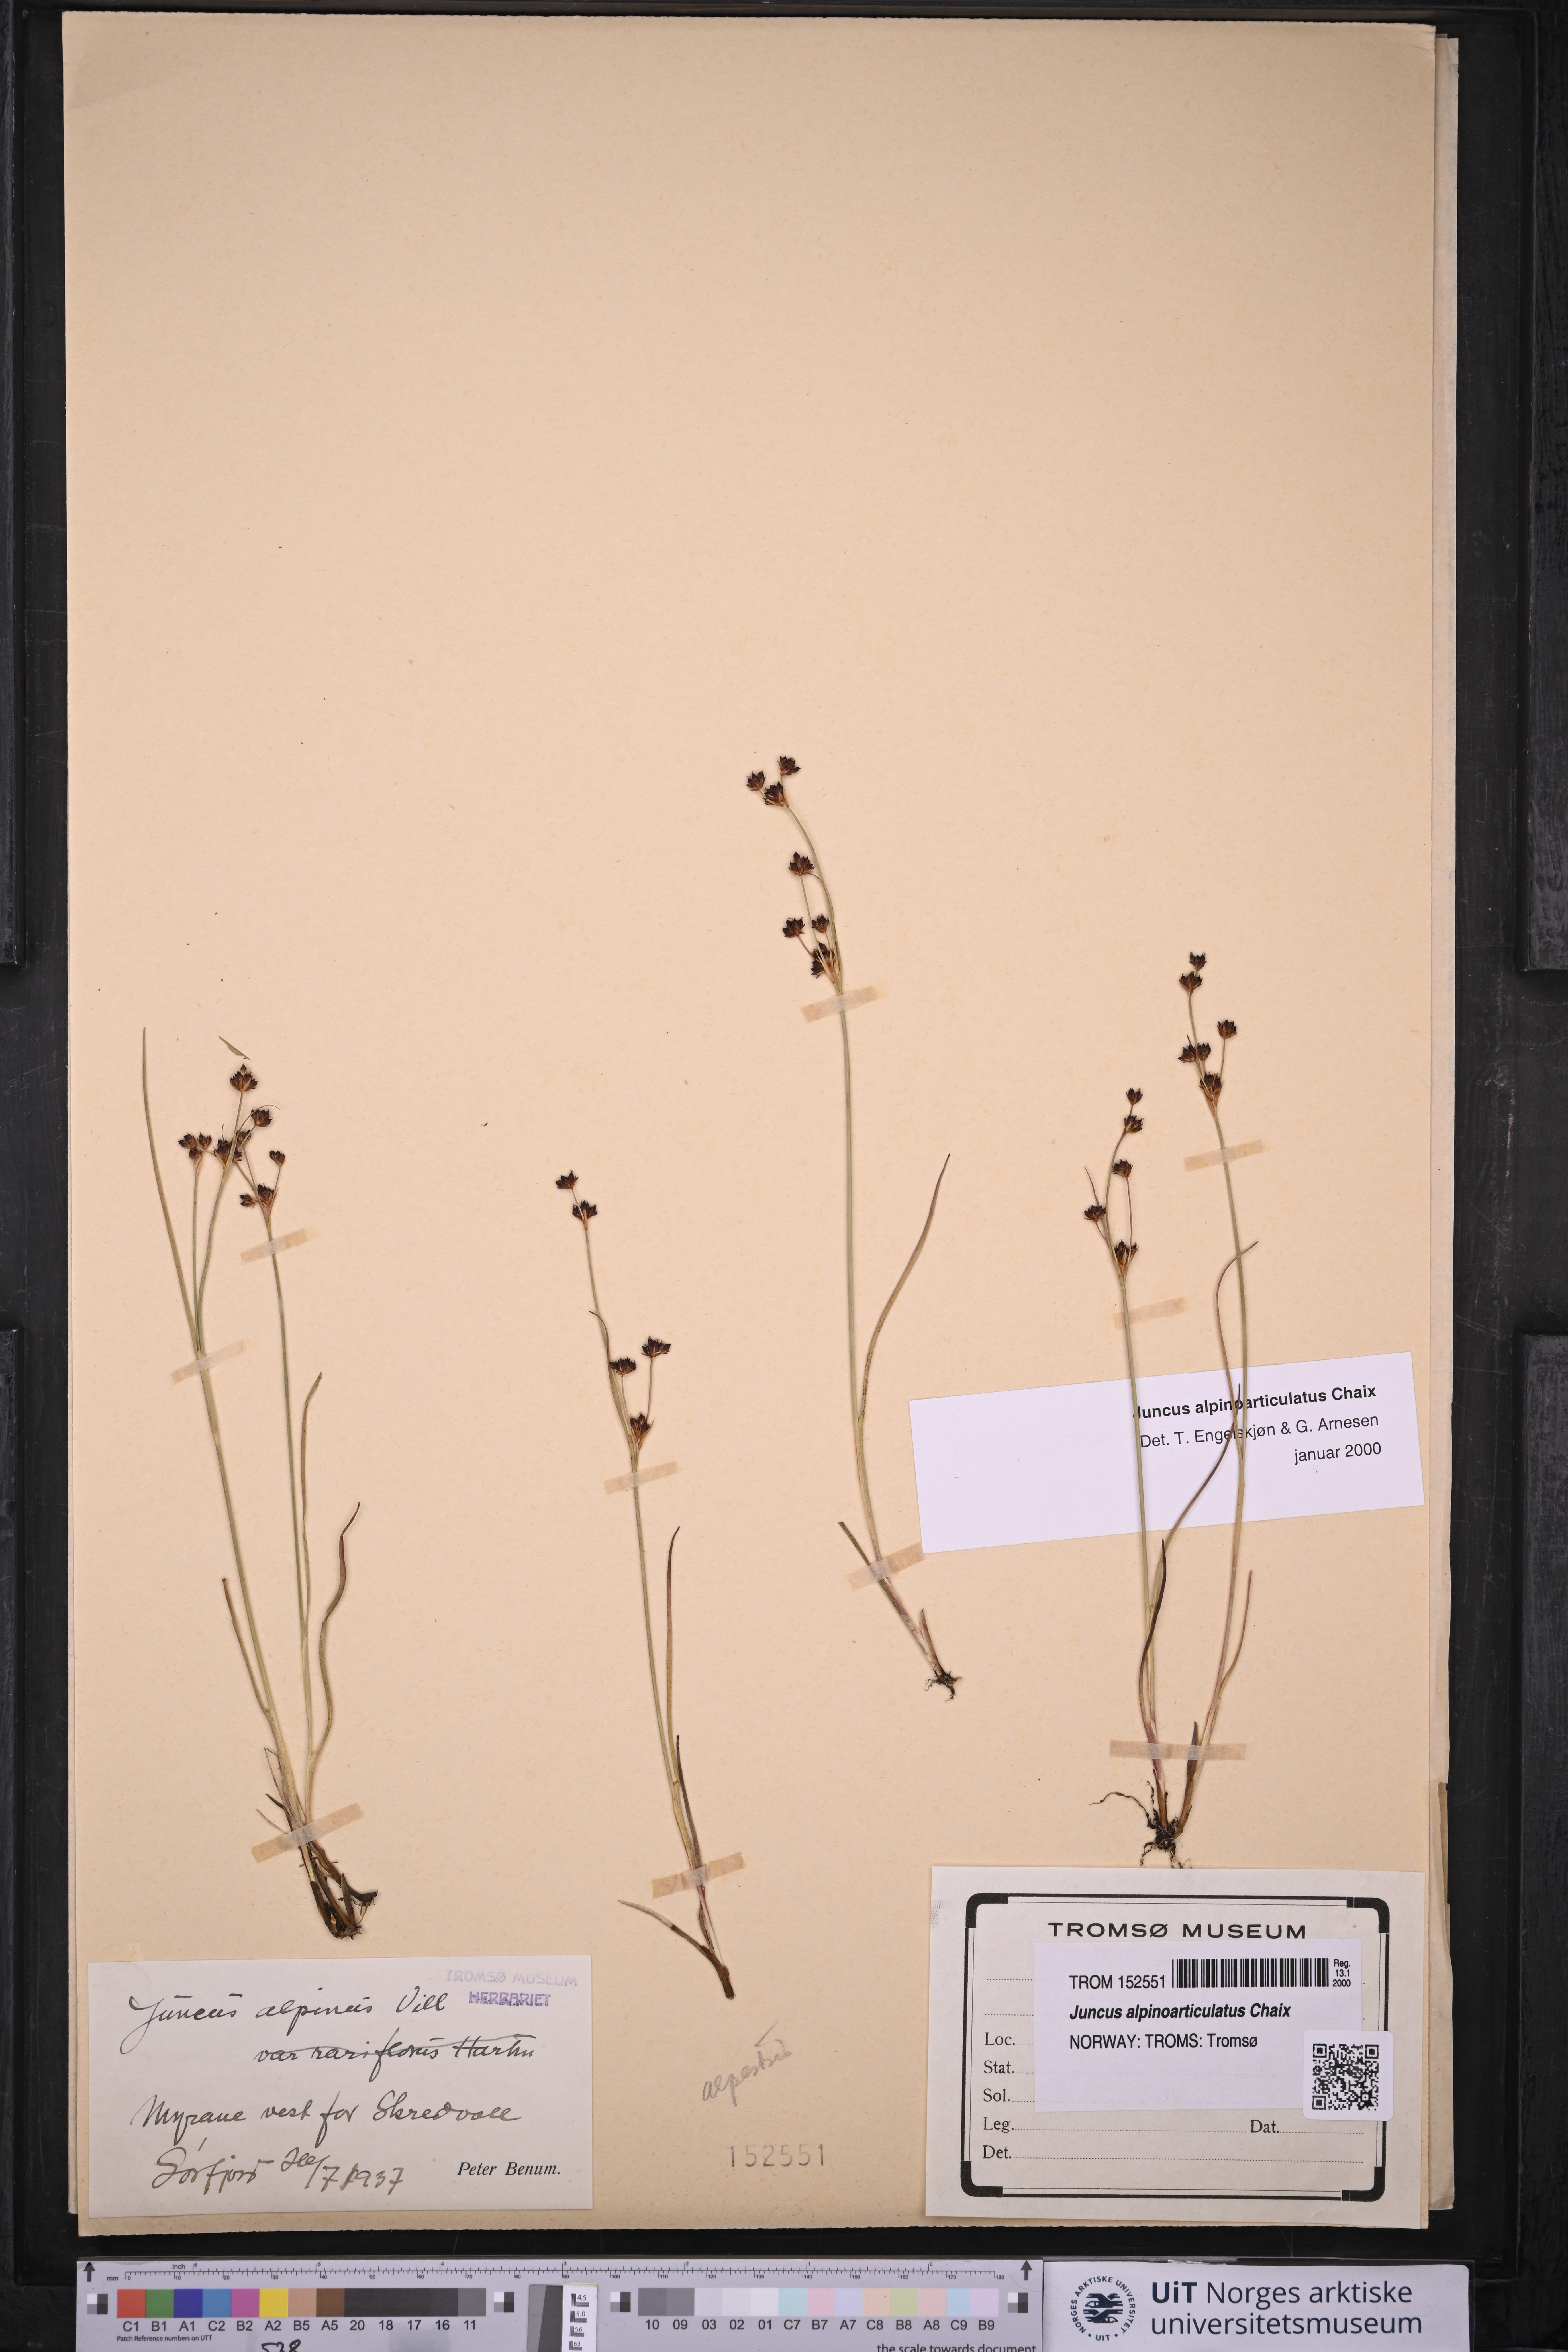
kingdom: Plantae
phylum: Tracheophyta
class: Liliopsida
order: Poales
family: Juncaceae
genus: Juncus
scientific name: Juncus alpinoarticulatus
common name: Alpine rush
